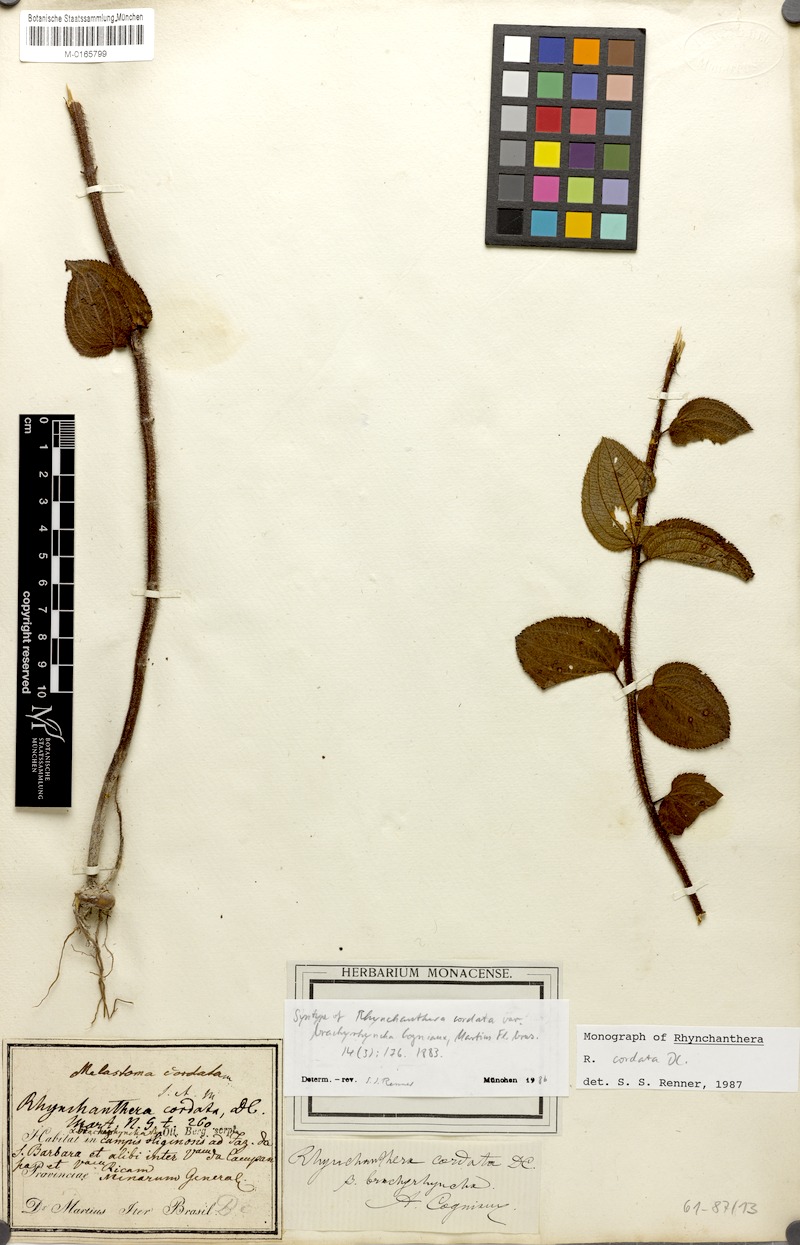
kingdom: Plantae
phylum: Tracheophyta
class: Magnoliopsida
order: Myrtales
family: Melastomataceae
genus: Rhynchanthera
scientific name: Rhynchanthera cordata
